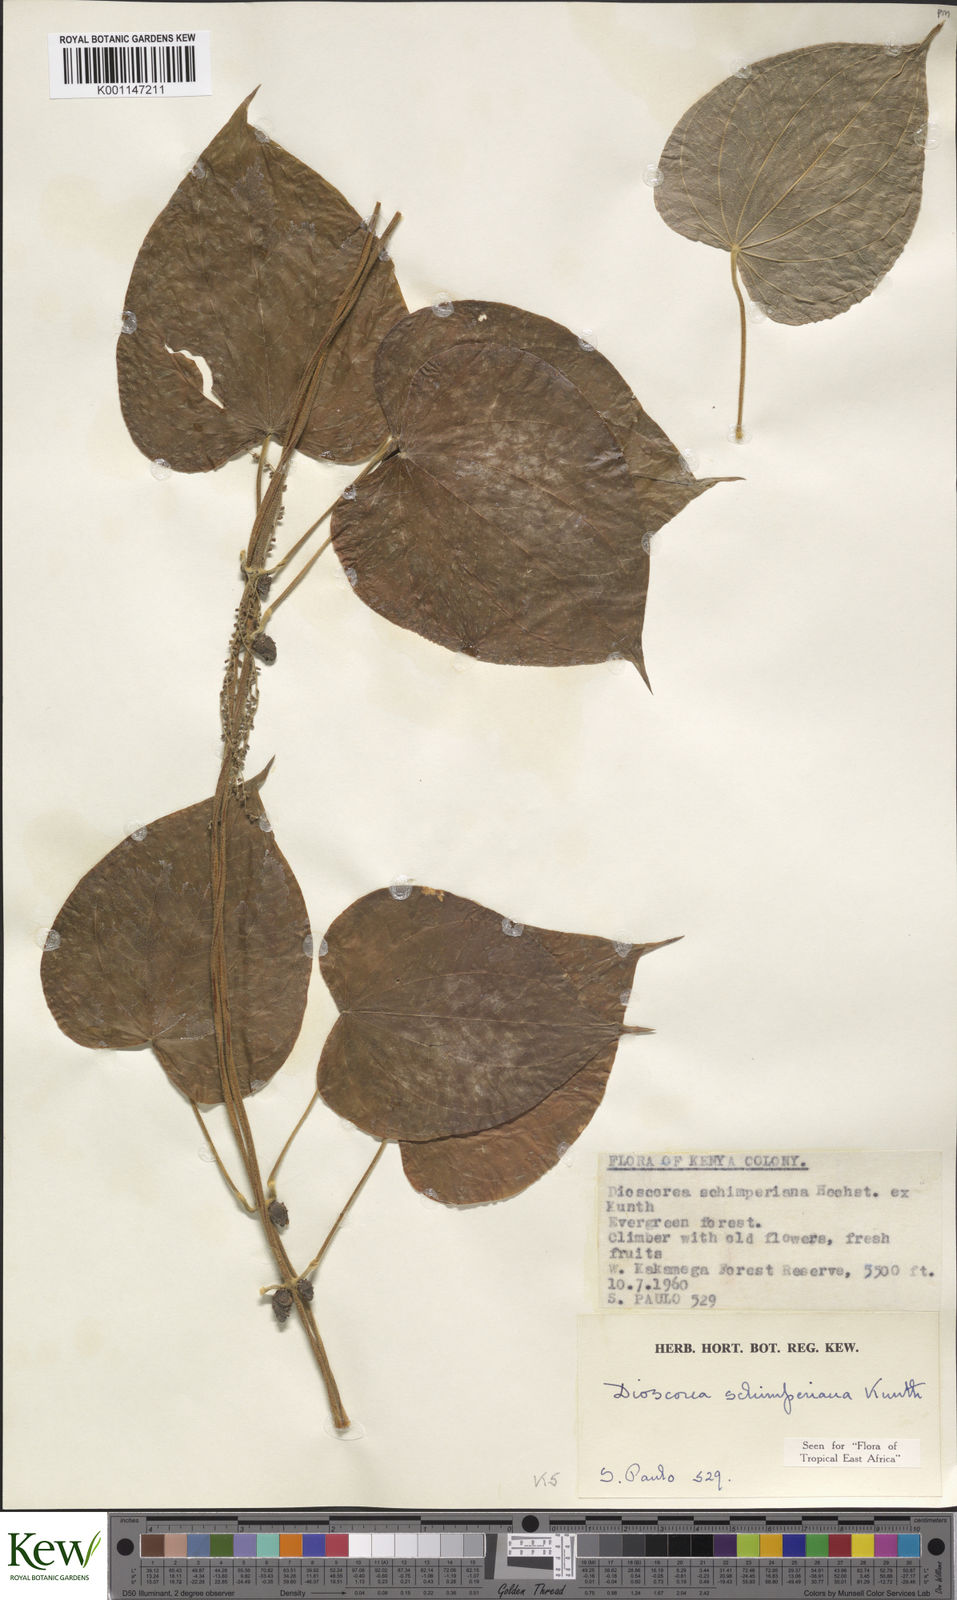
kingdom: Plantae
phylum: Tracheophyta
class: Liliopsida
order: Dioscoreales
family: Dioscoreaceae
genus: Dioscorea
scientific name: Dioscorea schimperiana
